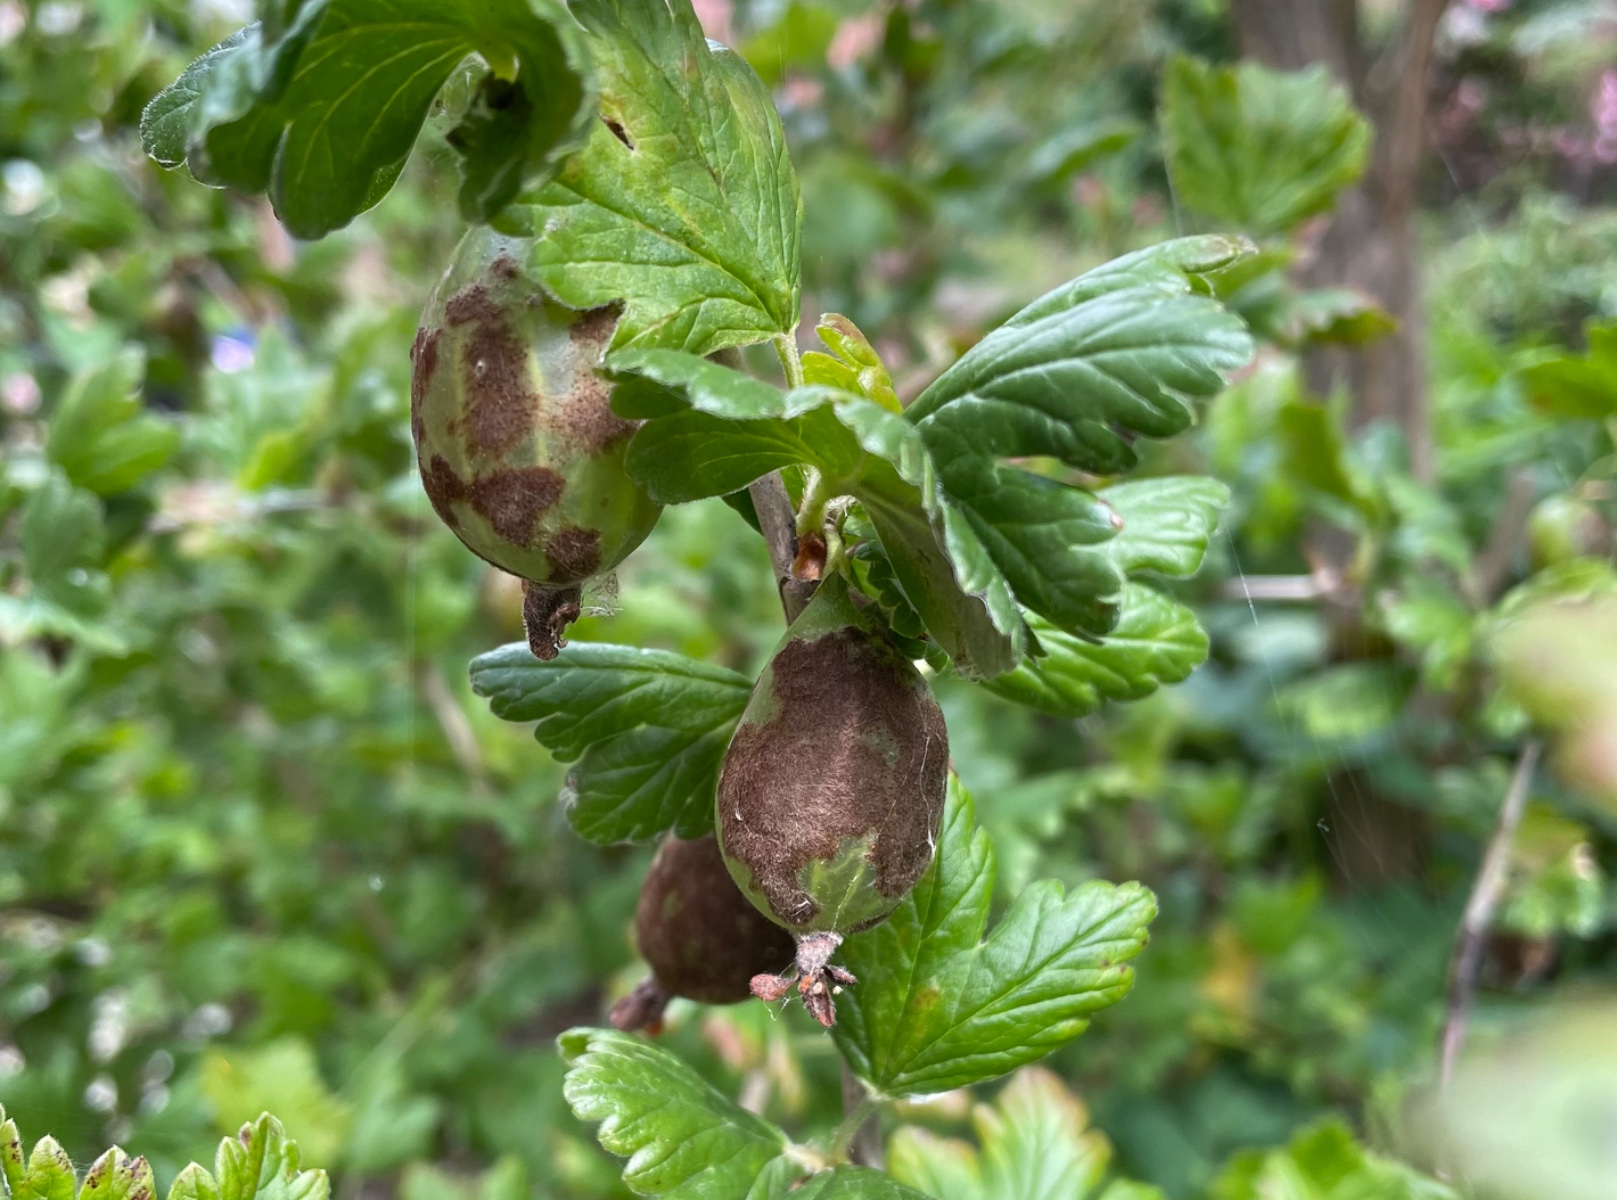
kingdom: Fungi
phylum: Ascomycota
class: Leotiomycetes
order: Helotiales
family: Erysiphaceae
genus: Podosphaera
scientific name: Podosphaera mors-uvae
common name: American gooseberry mildew
